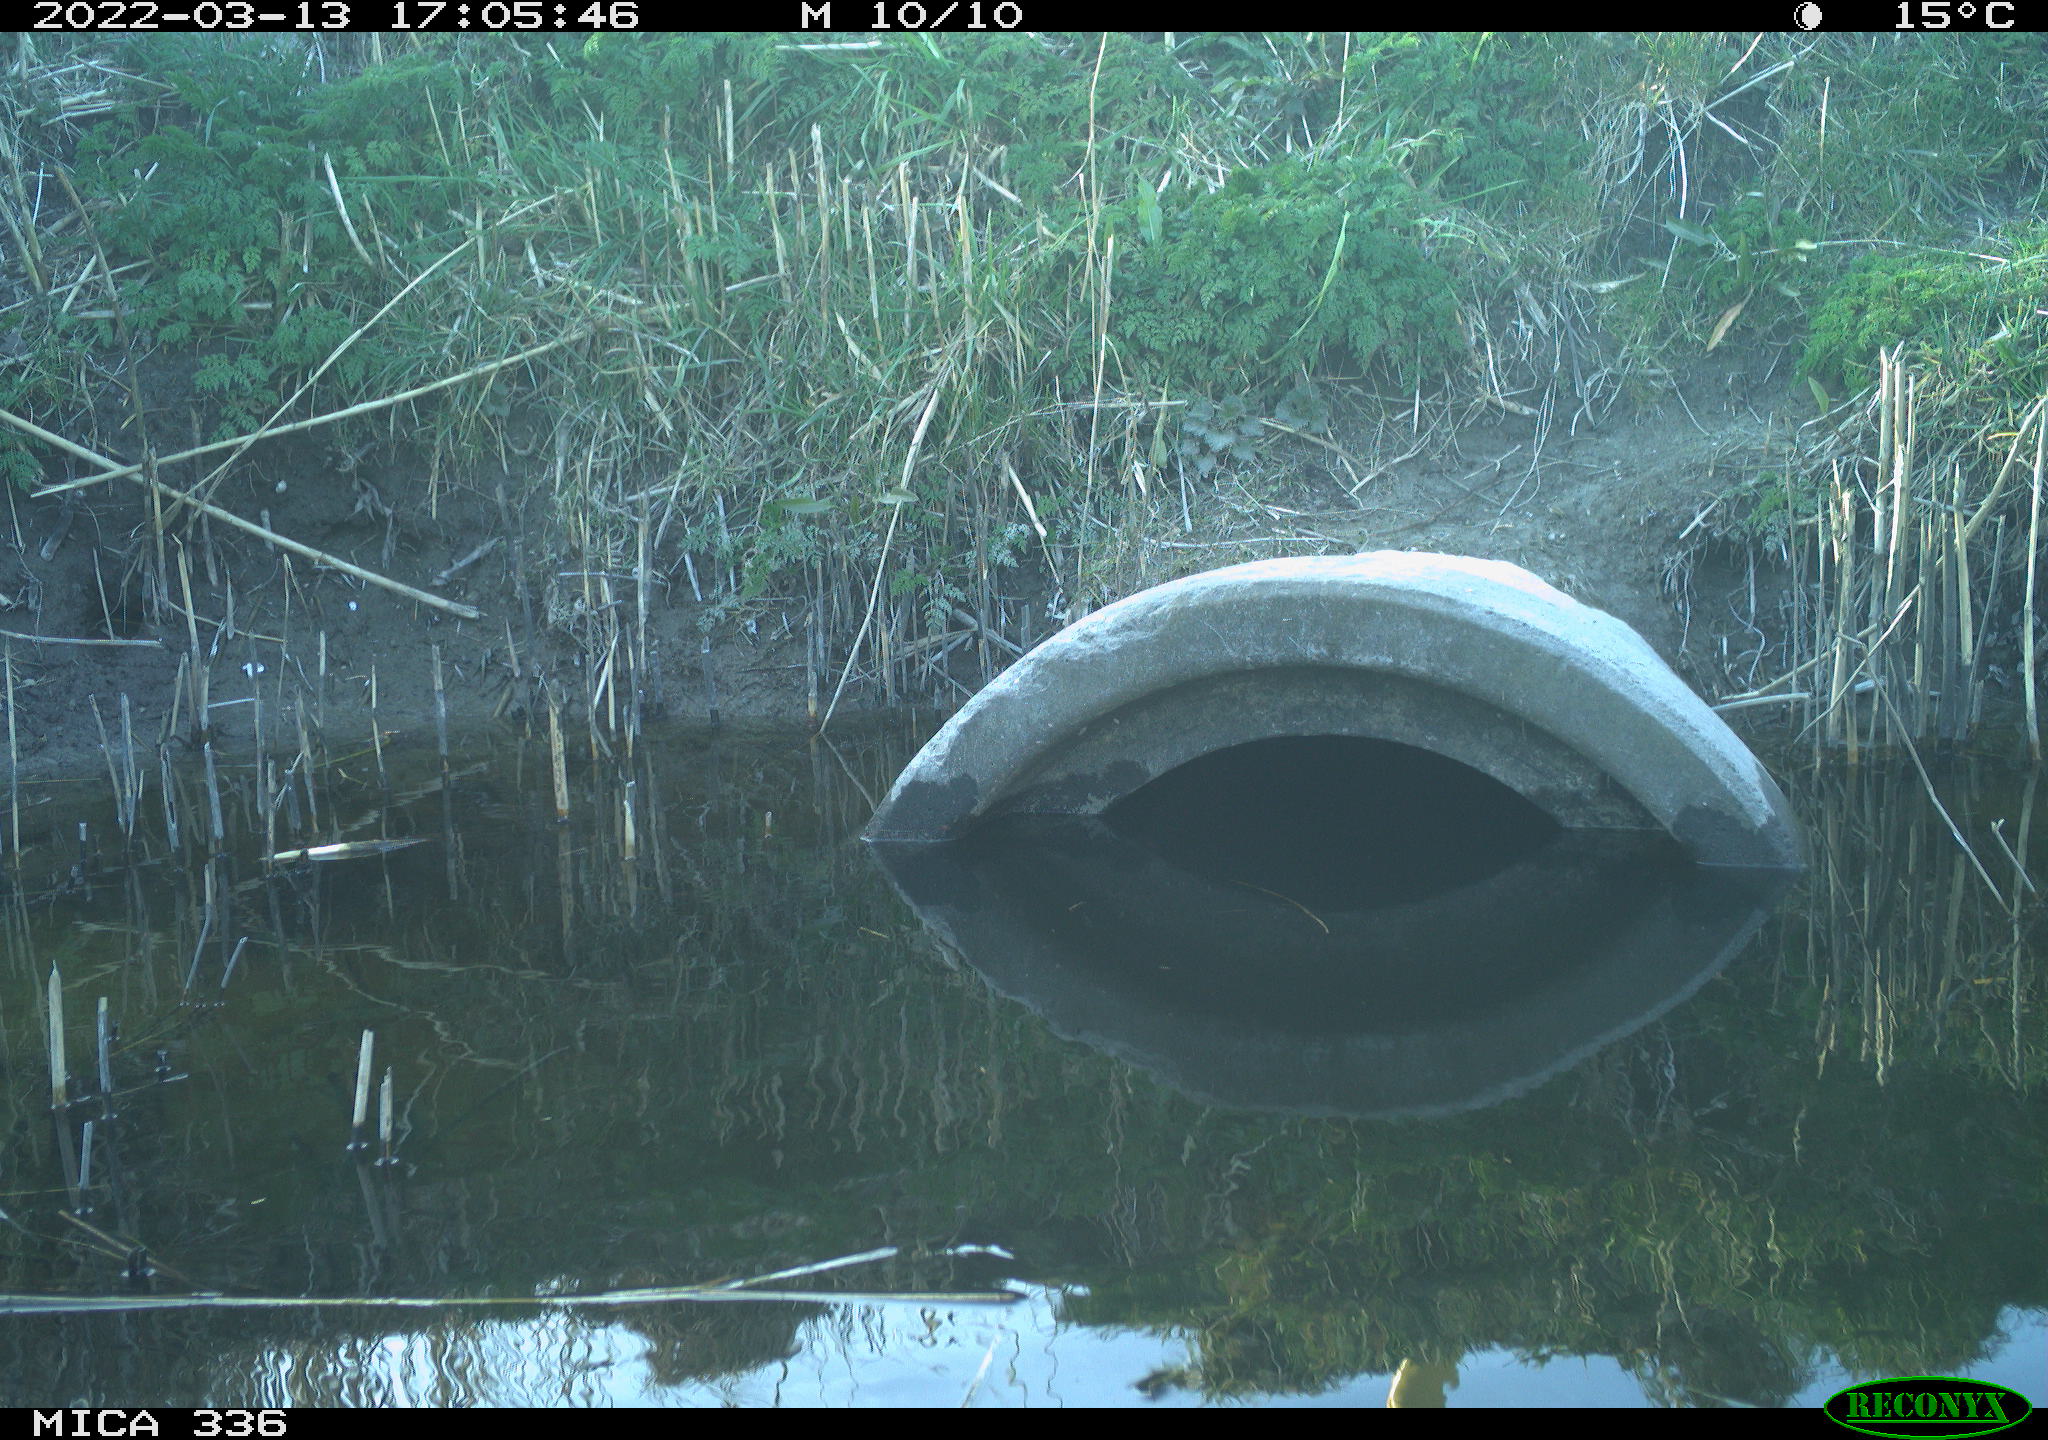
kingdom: Animalia
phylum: Chordata
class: Aves
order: Gruiformes
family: Rallidae
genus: Rallus
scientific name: Rallus aquaticus
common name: Water rail
